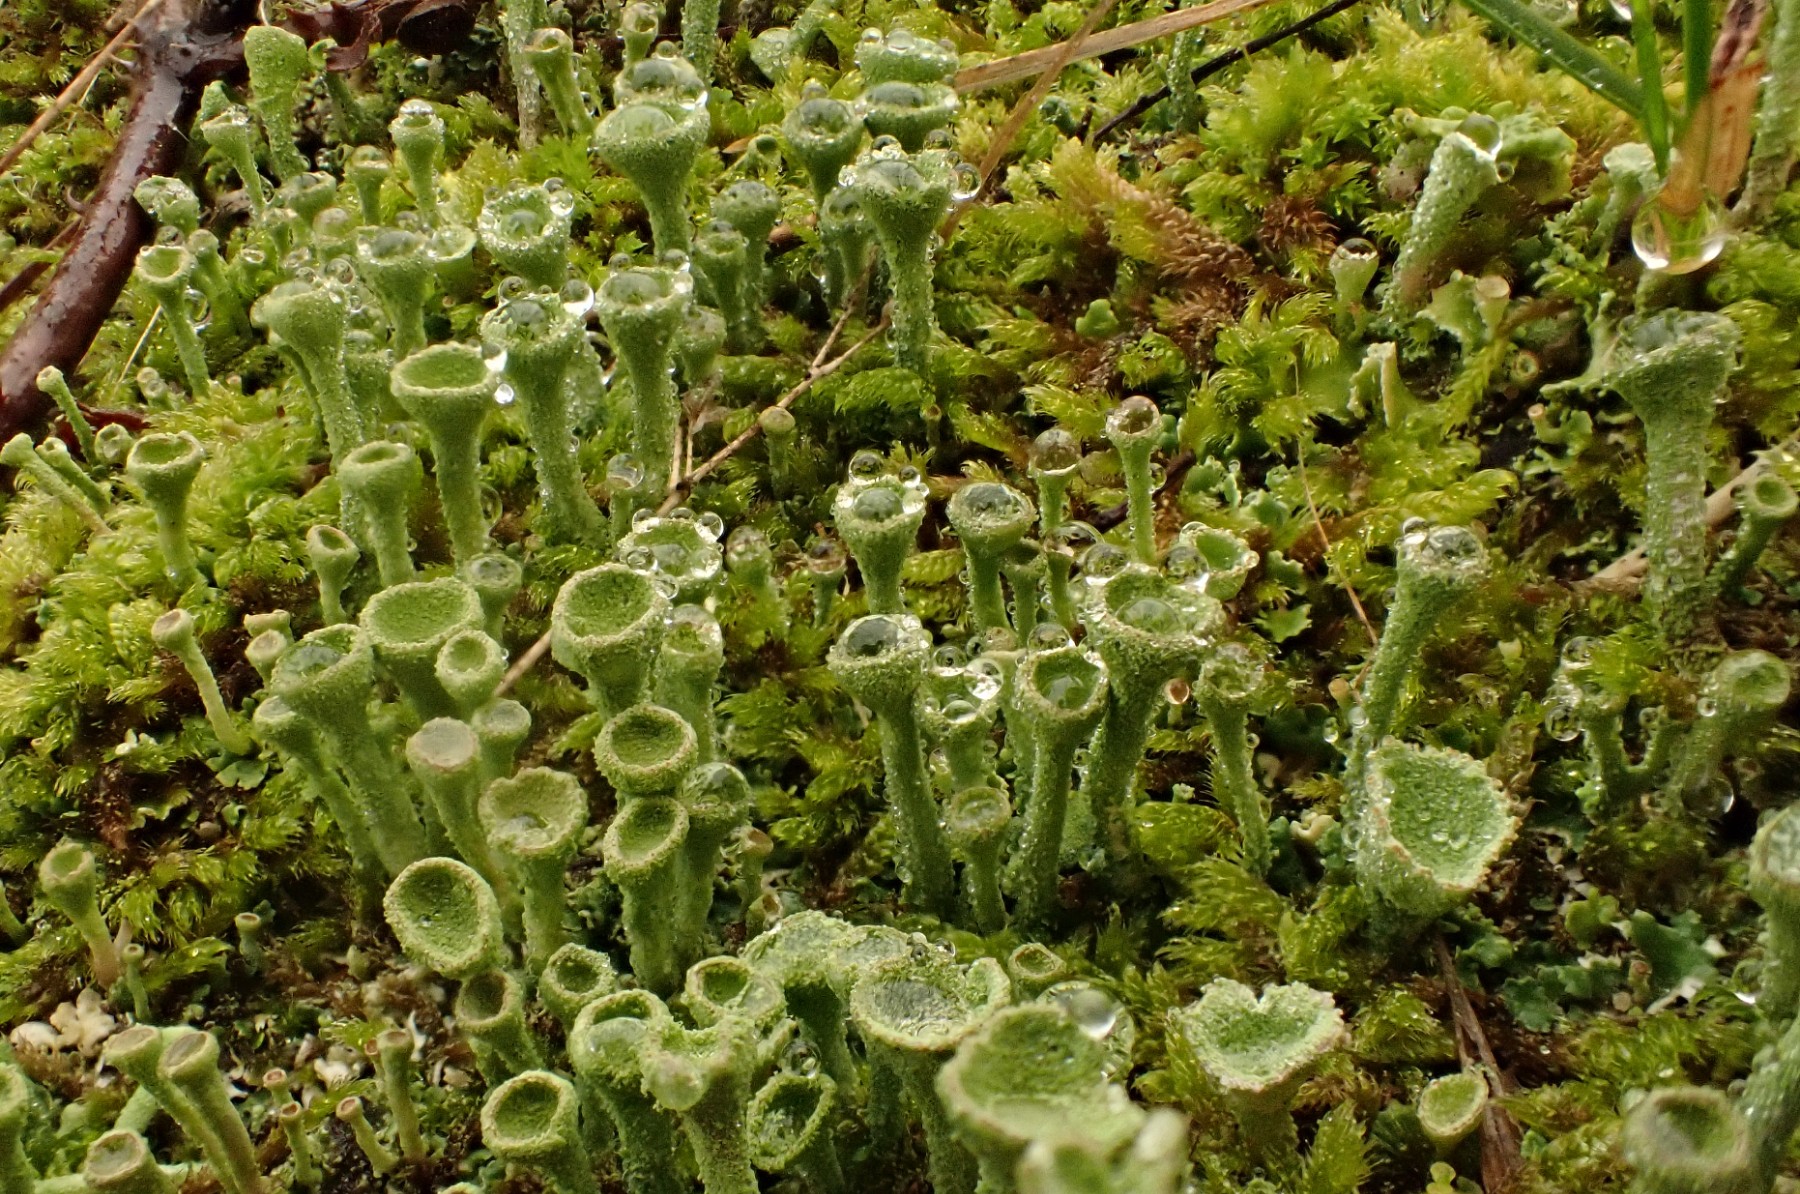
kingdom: Fungi
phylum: Ascomycota
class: Lecanoromycetes
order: Lecanorales
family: Cladoniaceae
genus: Cladonia
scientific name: Cladonia
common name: brungrøn bægerlav
